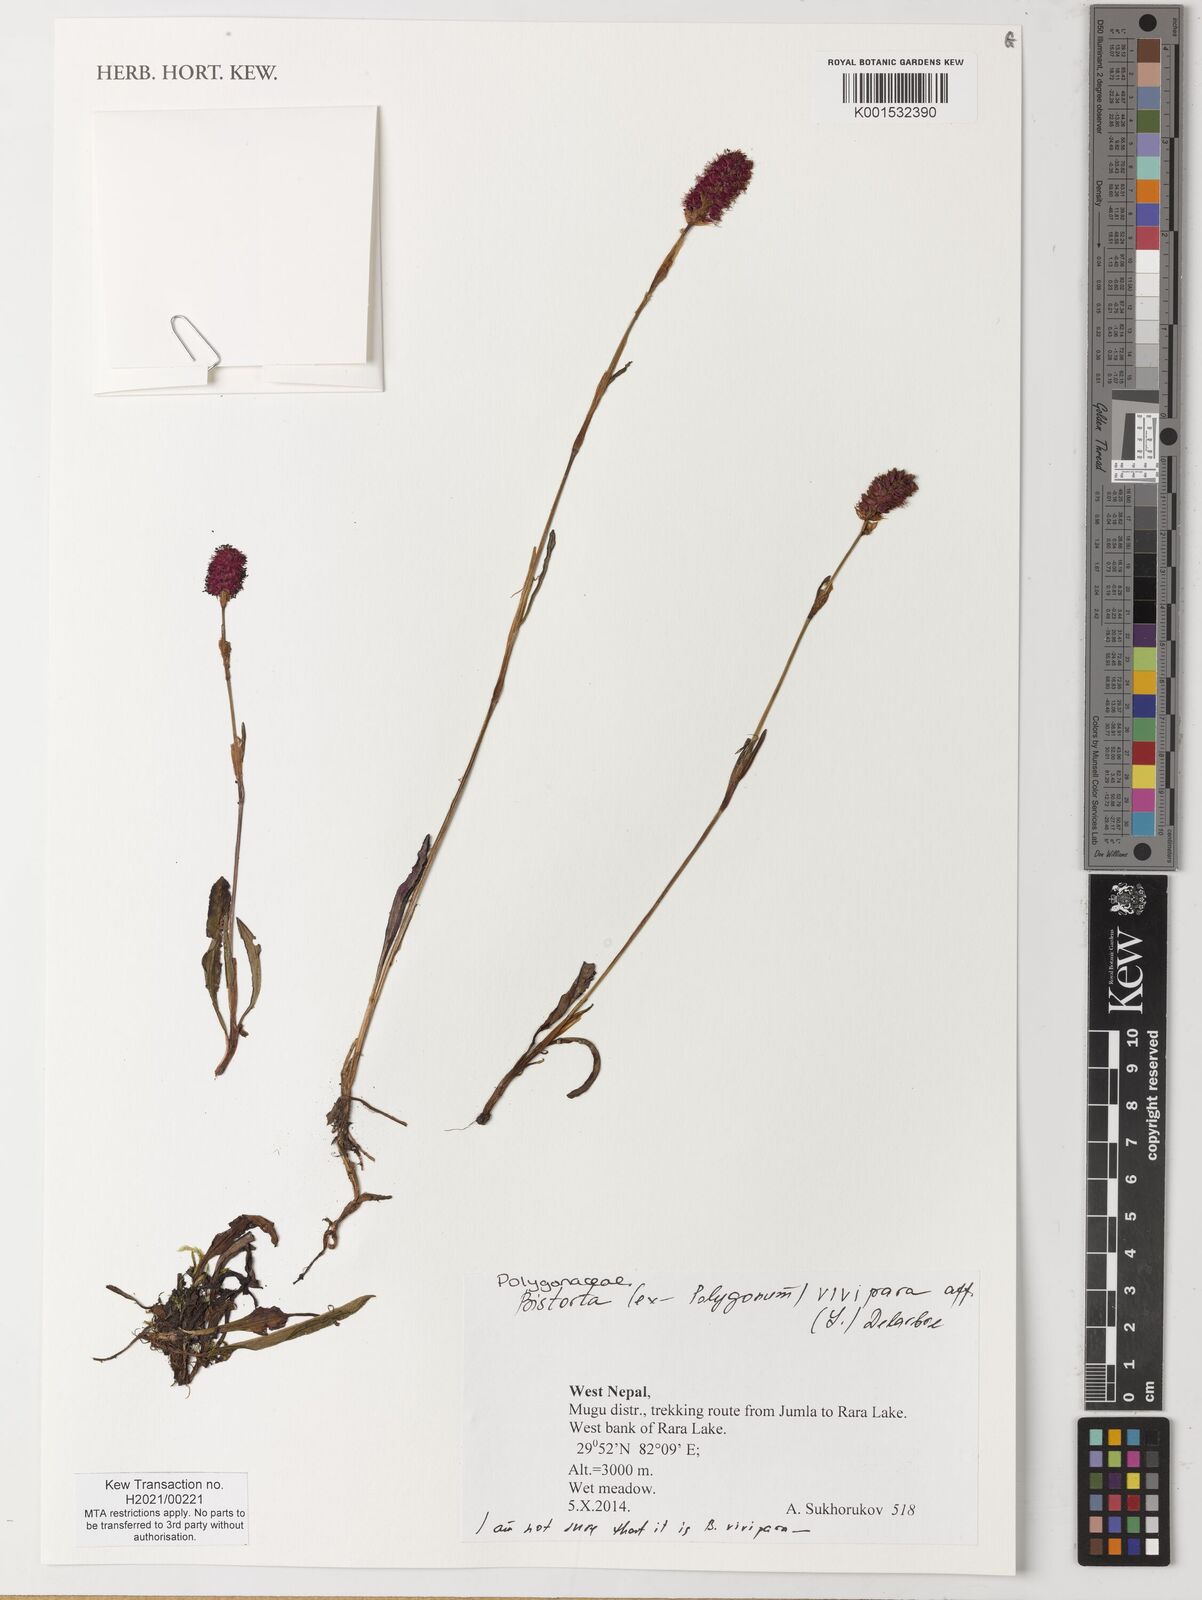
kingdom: Plantae
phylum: Tracheophyta
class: Magnoliopsida
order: Caryophyllales
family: Polygonaceae
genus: Bistorta
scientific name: Bistorta vivipara
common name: Alpine bistort
